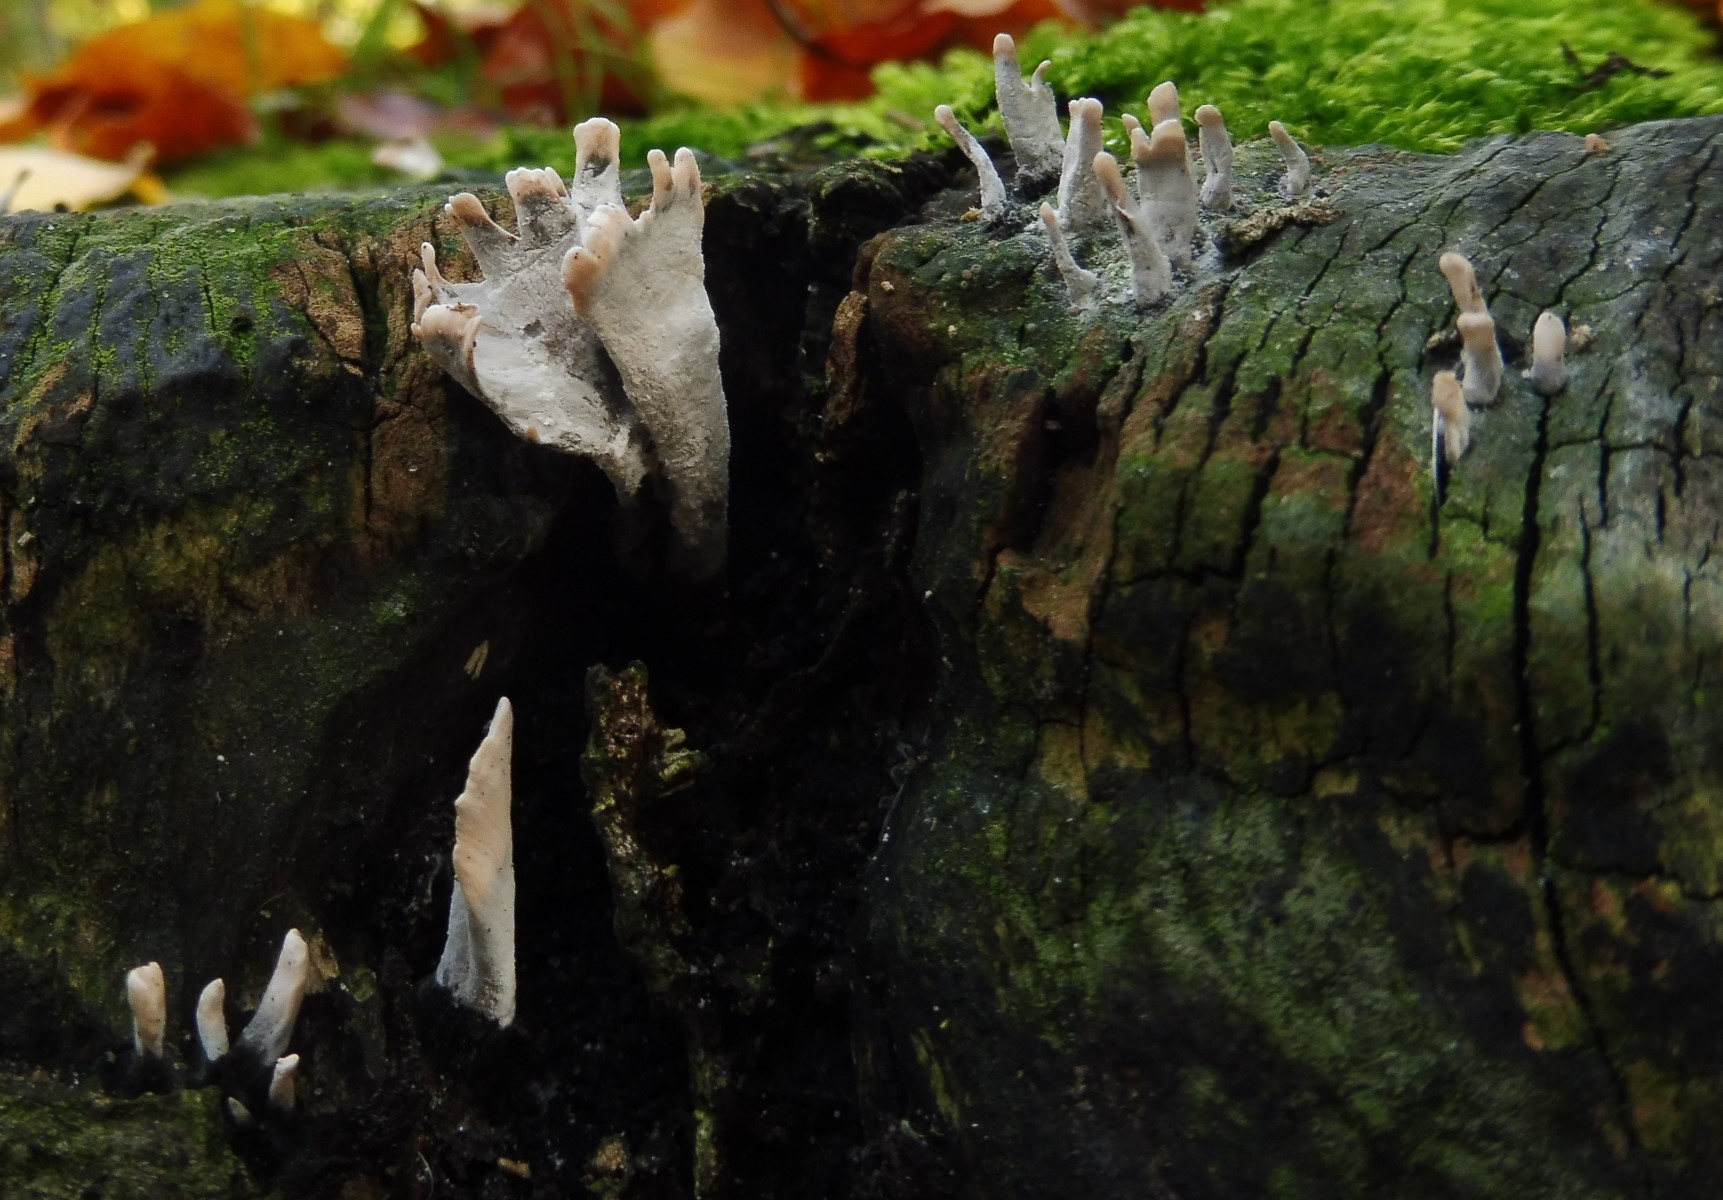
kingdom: Fungi
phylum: Ascomycota
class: Sordariomycetes
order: Xylariales
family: Xylariaceae
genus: Xylaria
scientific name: Xylaria hypoxylon
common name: grenet stødsvamp
